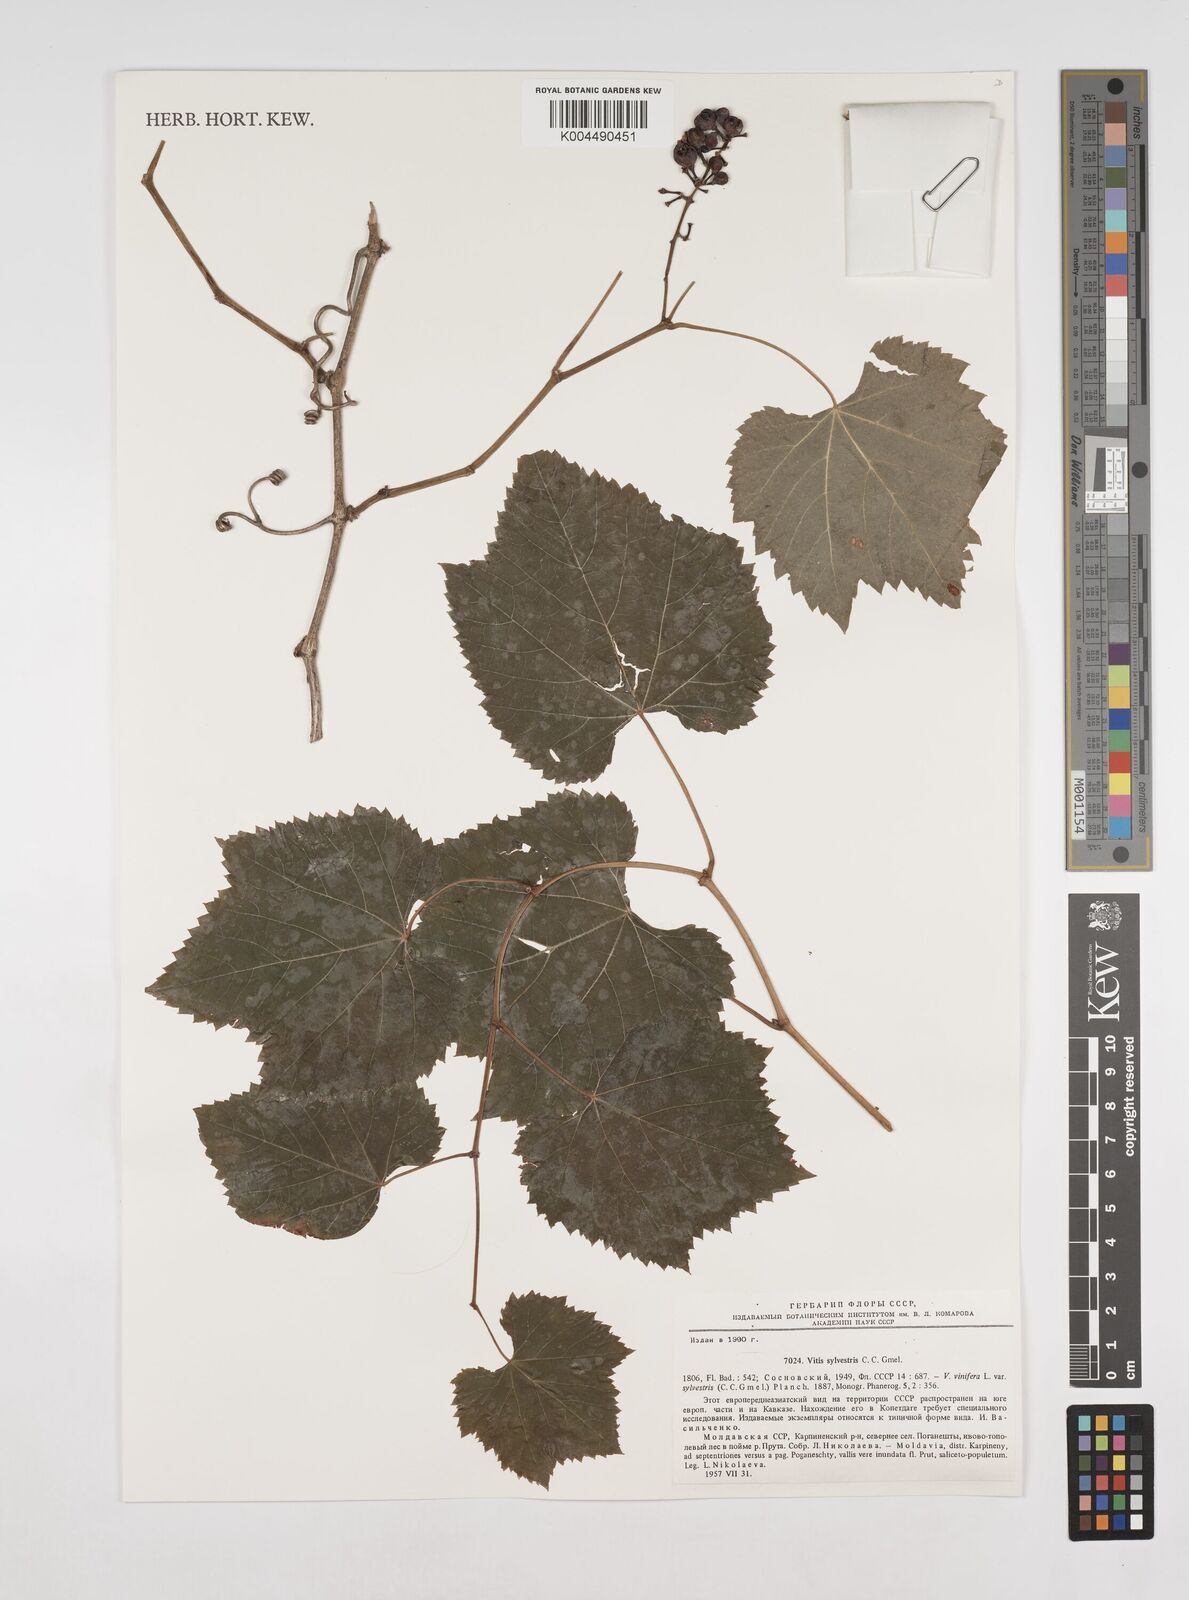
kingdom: Plantae
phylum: Tracheophyta
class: Magnoliopsida
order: Vitales
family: Vitaceae
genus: Vitis
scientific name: Vitis
